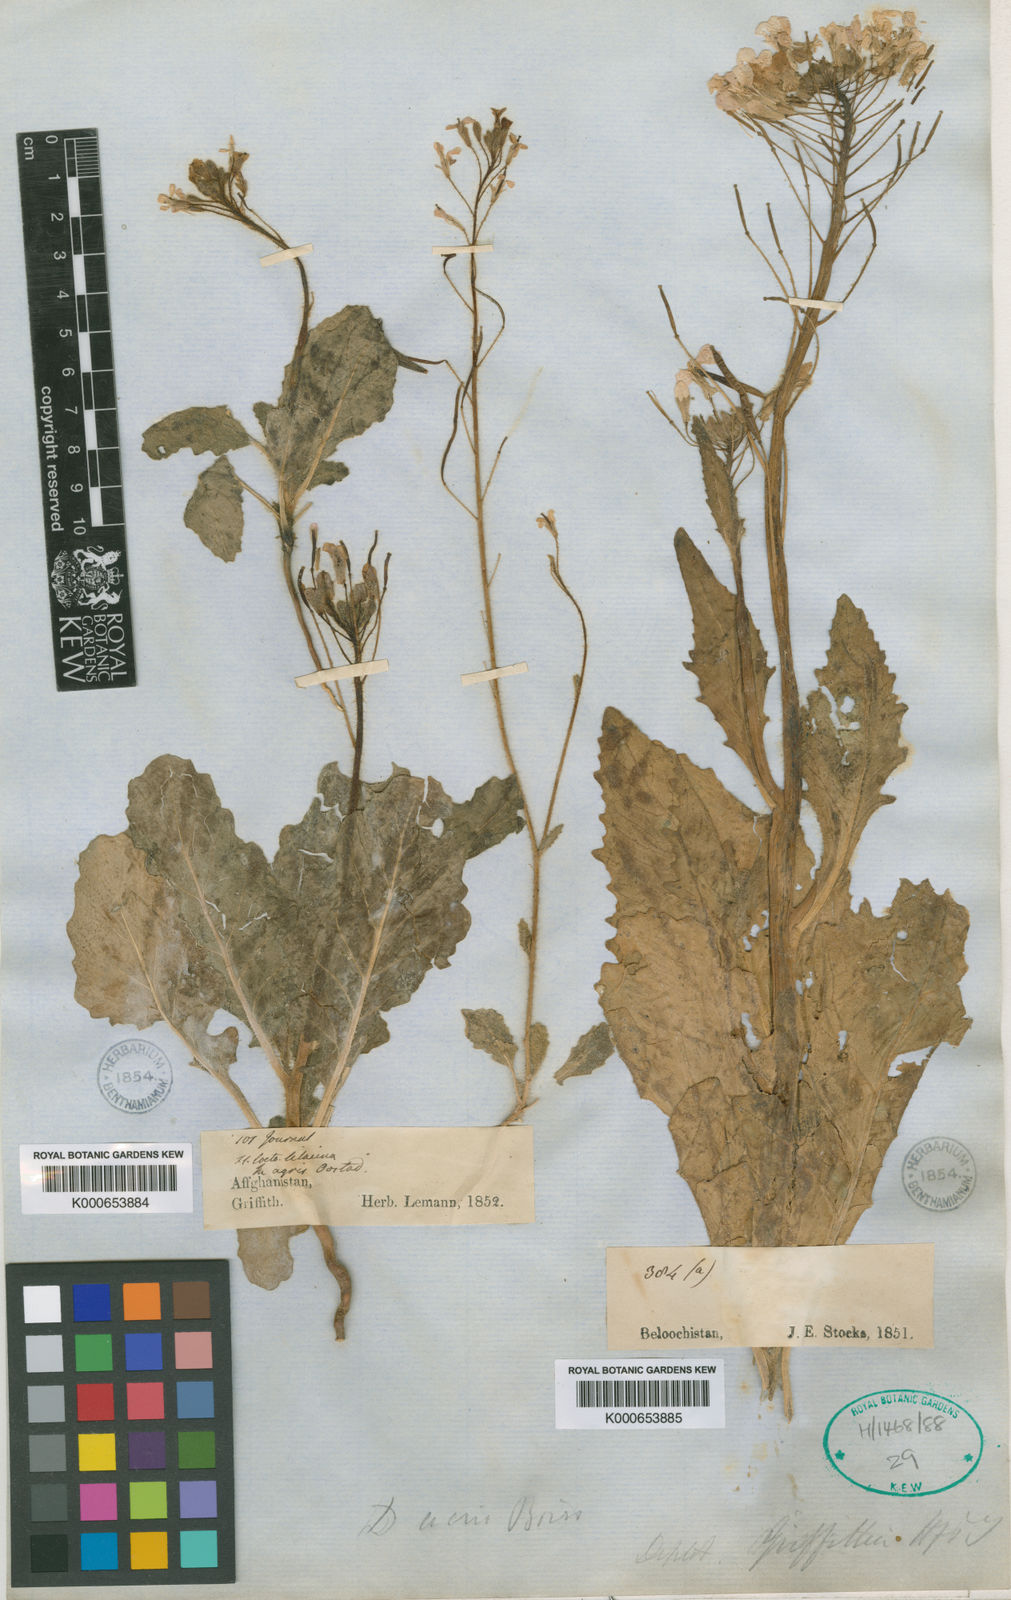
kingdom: Plantae
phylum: Tracheophyta
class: Magnoliopsida
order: Brassicales
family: Brassicaceae
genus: Diplotaxis
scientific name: Diplotaxis griffithii
